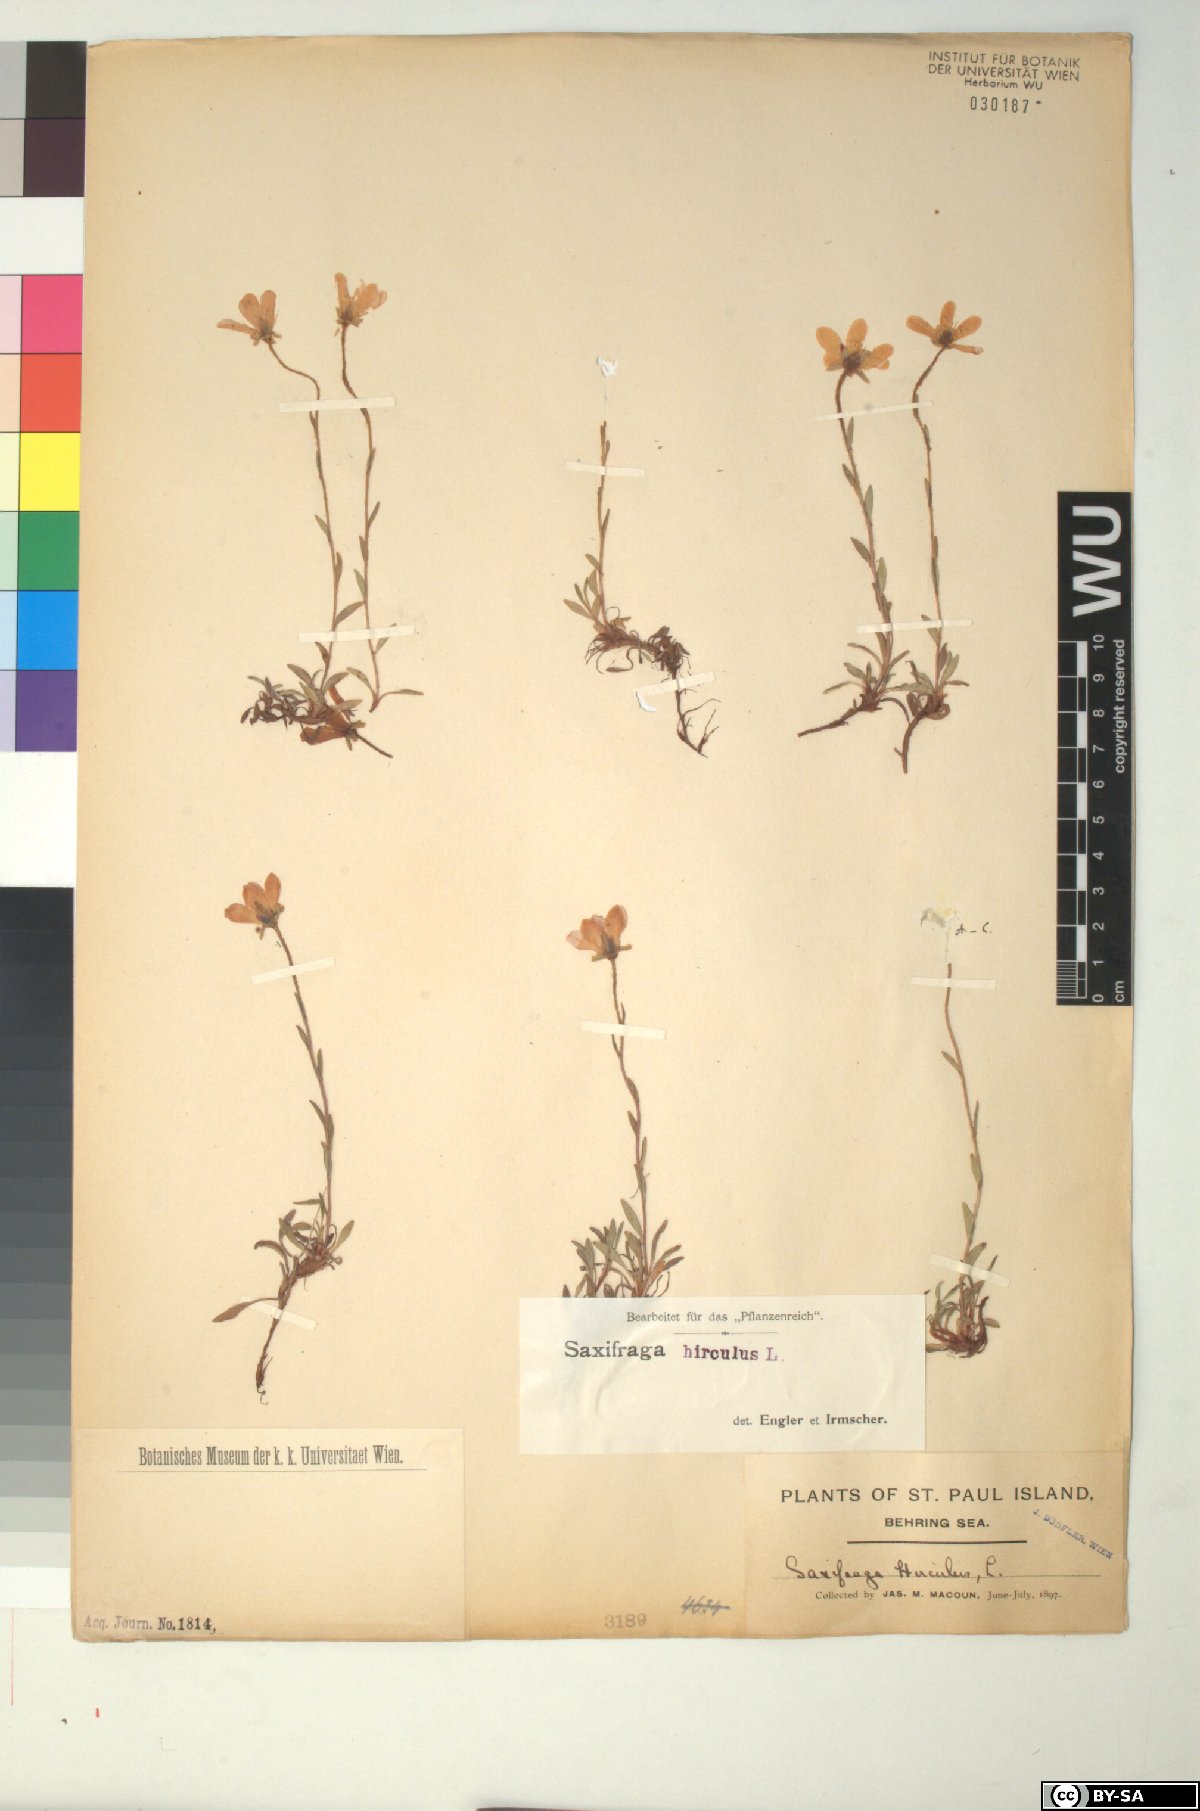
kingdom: Plantae
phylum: Tracheophyta
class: Magnoliopsida
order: Saxifragales
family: Saxifragaceae
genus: Saxifraga
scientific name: Saxifraga hirculus
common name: Yellow marsh saxifrage
